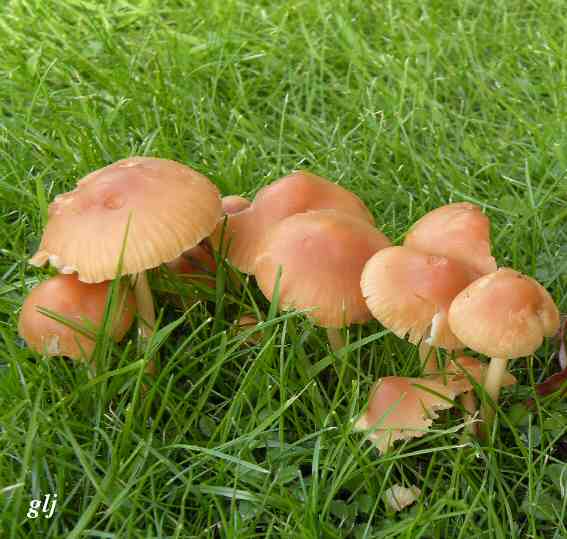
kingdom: Fungi
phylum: Basidiomycota
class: Agaricomycetes
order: Agaricales
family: Marasmiaceae
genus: Marasmius
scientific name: Marasmius oreades
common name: elledans-bruskhat
